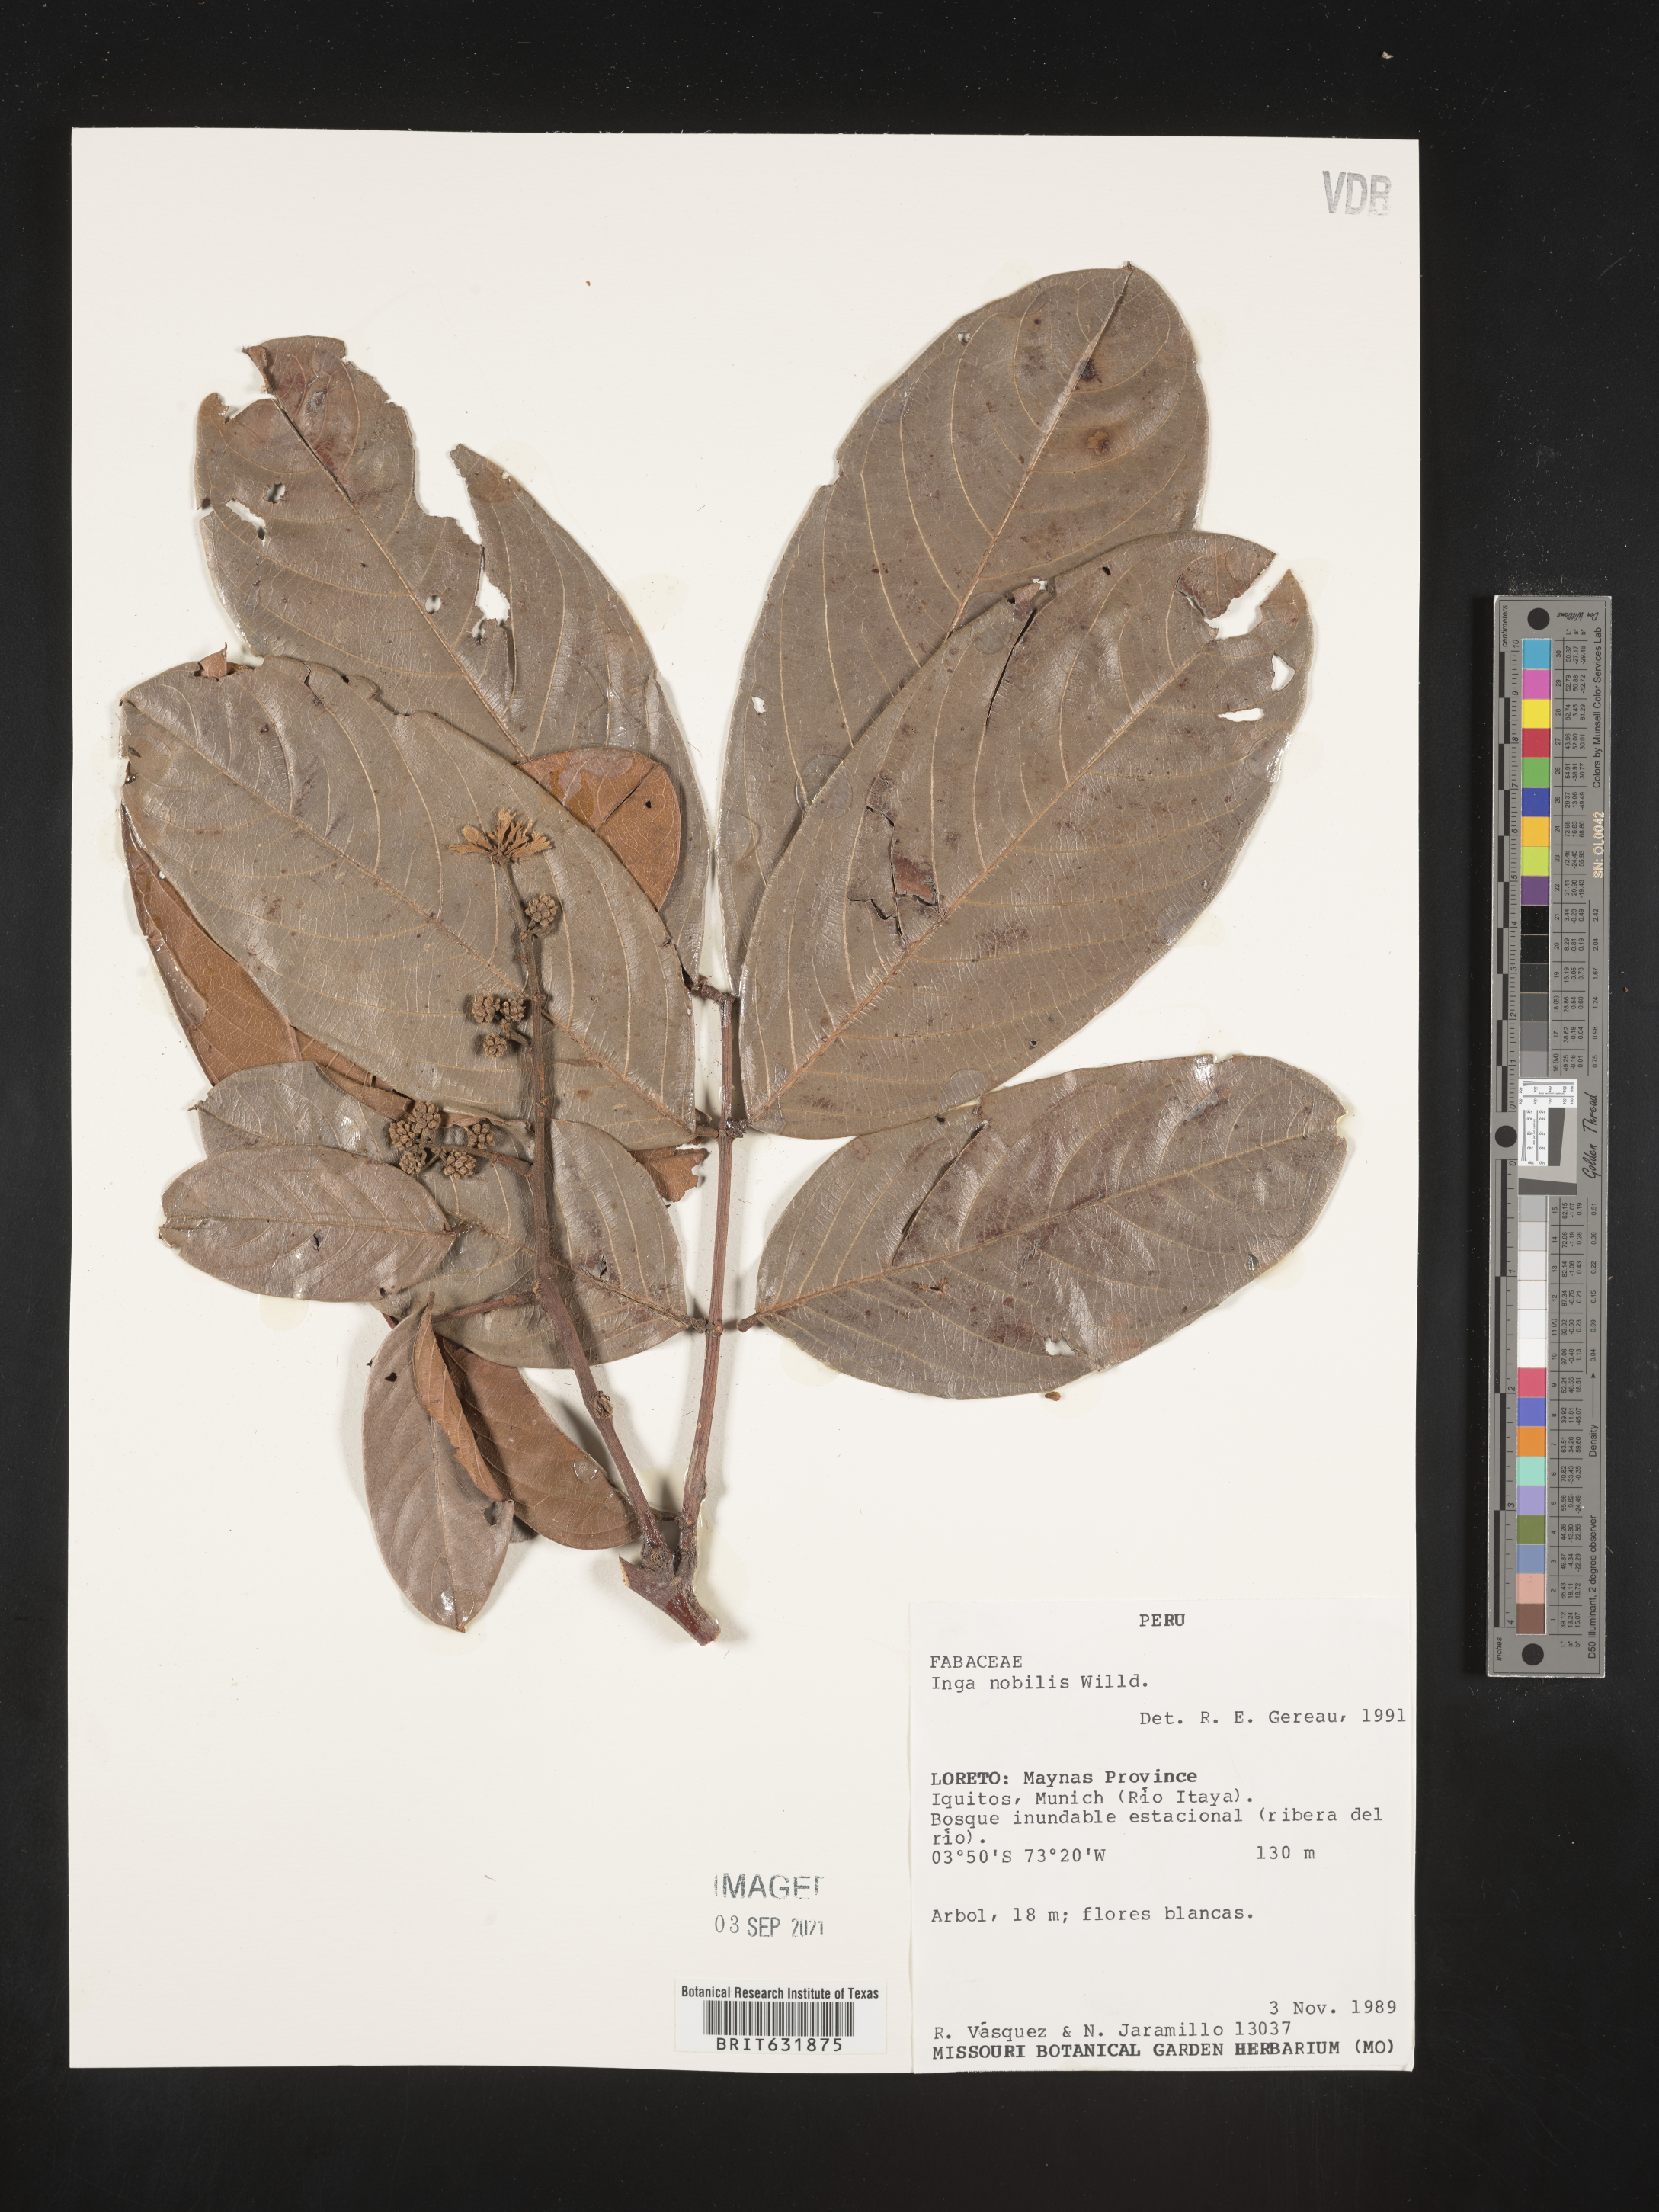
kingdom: Plantae
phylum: Tracheophyta
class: Magnoliopsida
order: Fabales
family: Fabaceae
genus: Inga
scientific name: Inga
